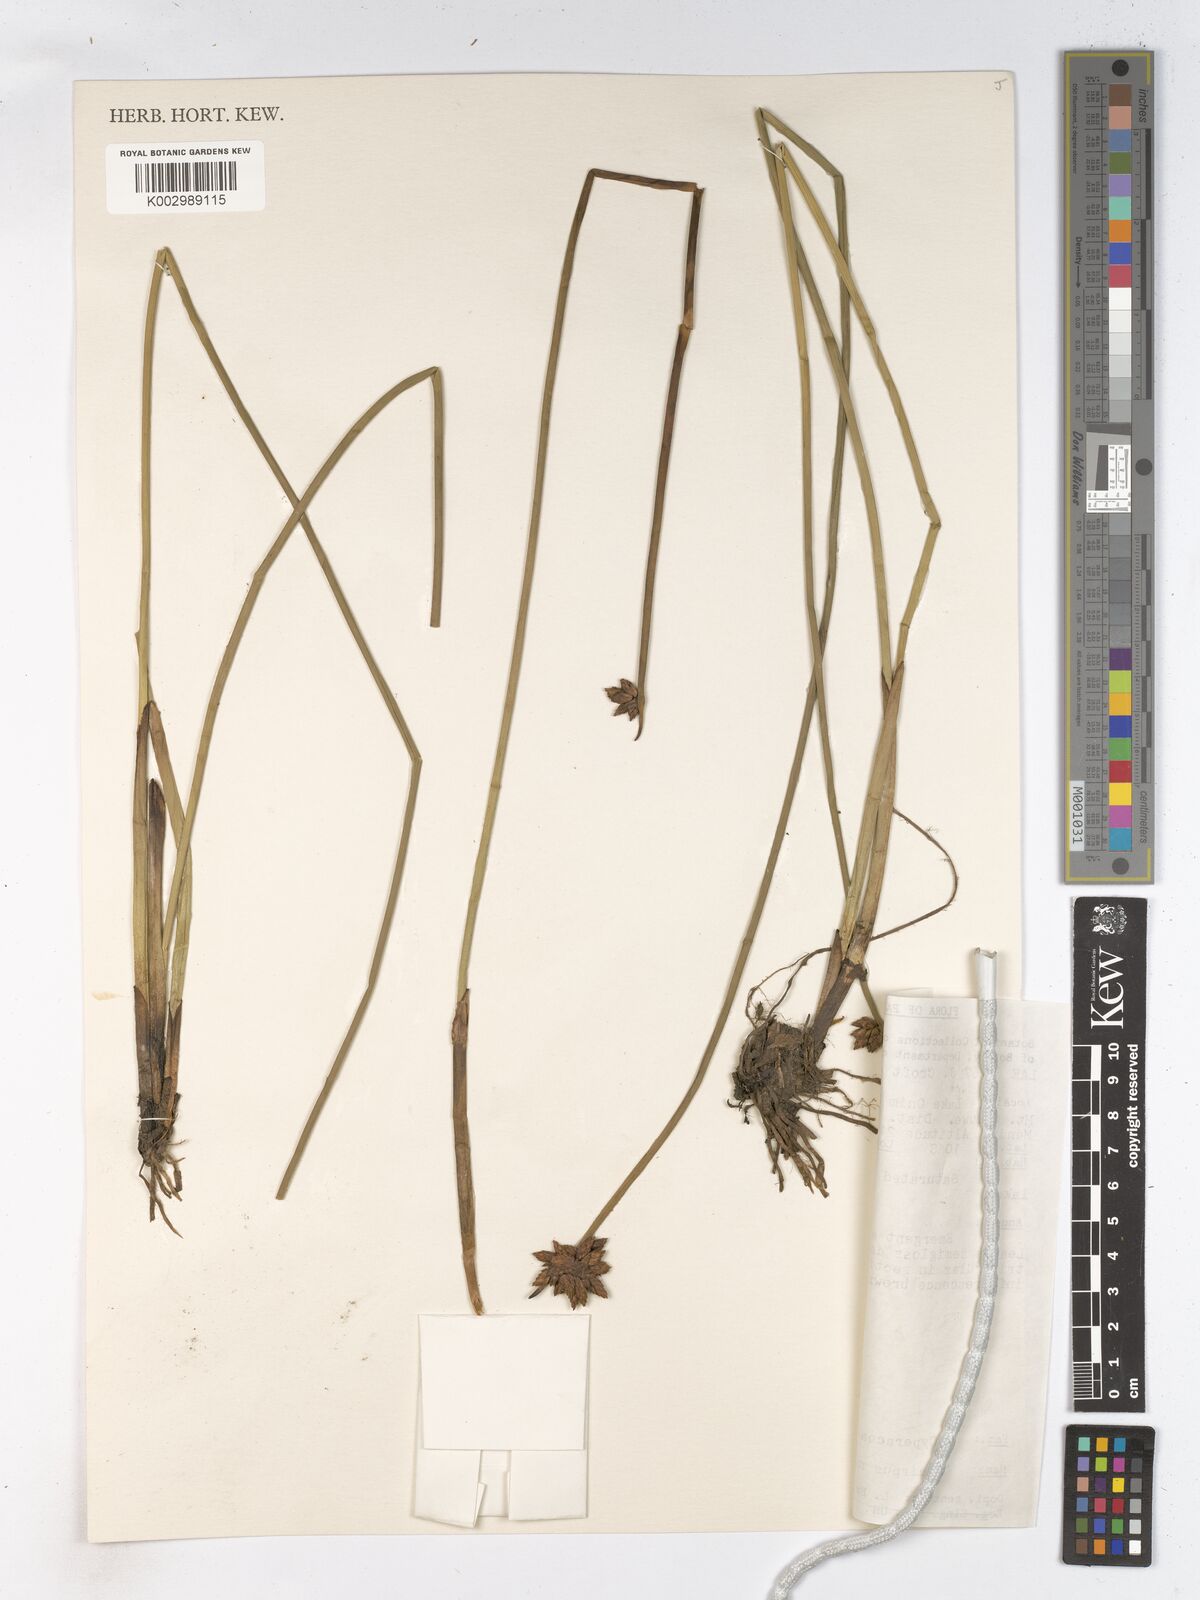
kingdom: Plantae
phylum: Tracheophyta
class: Liliopsida
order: Poales
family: Cyperaceae
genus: Schoenoplectiella
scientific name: Schoenoplectiella mucronata
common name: Bog bulrush
